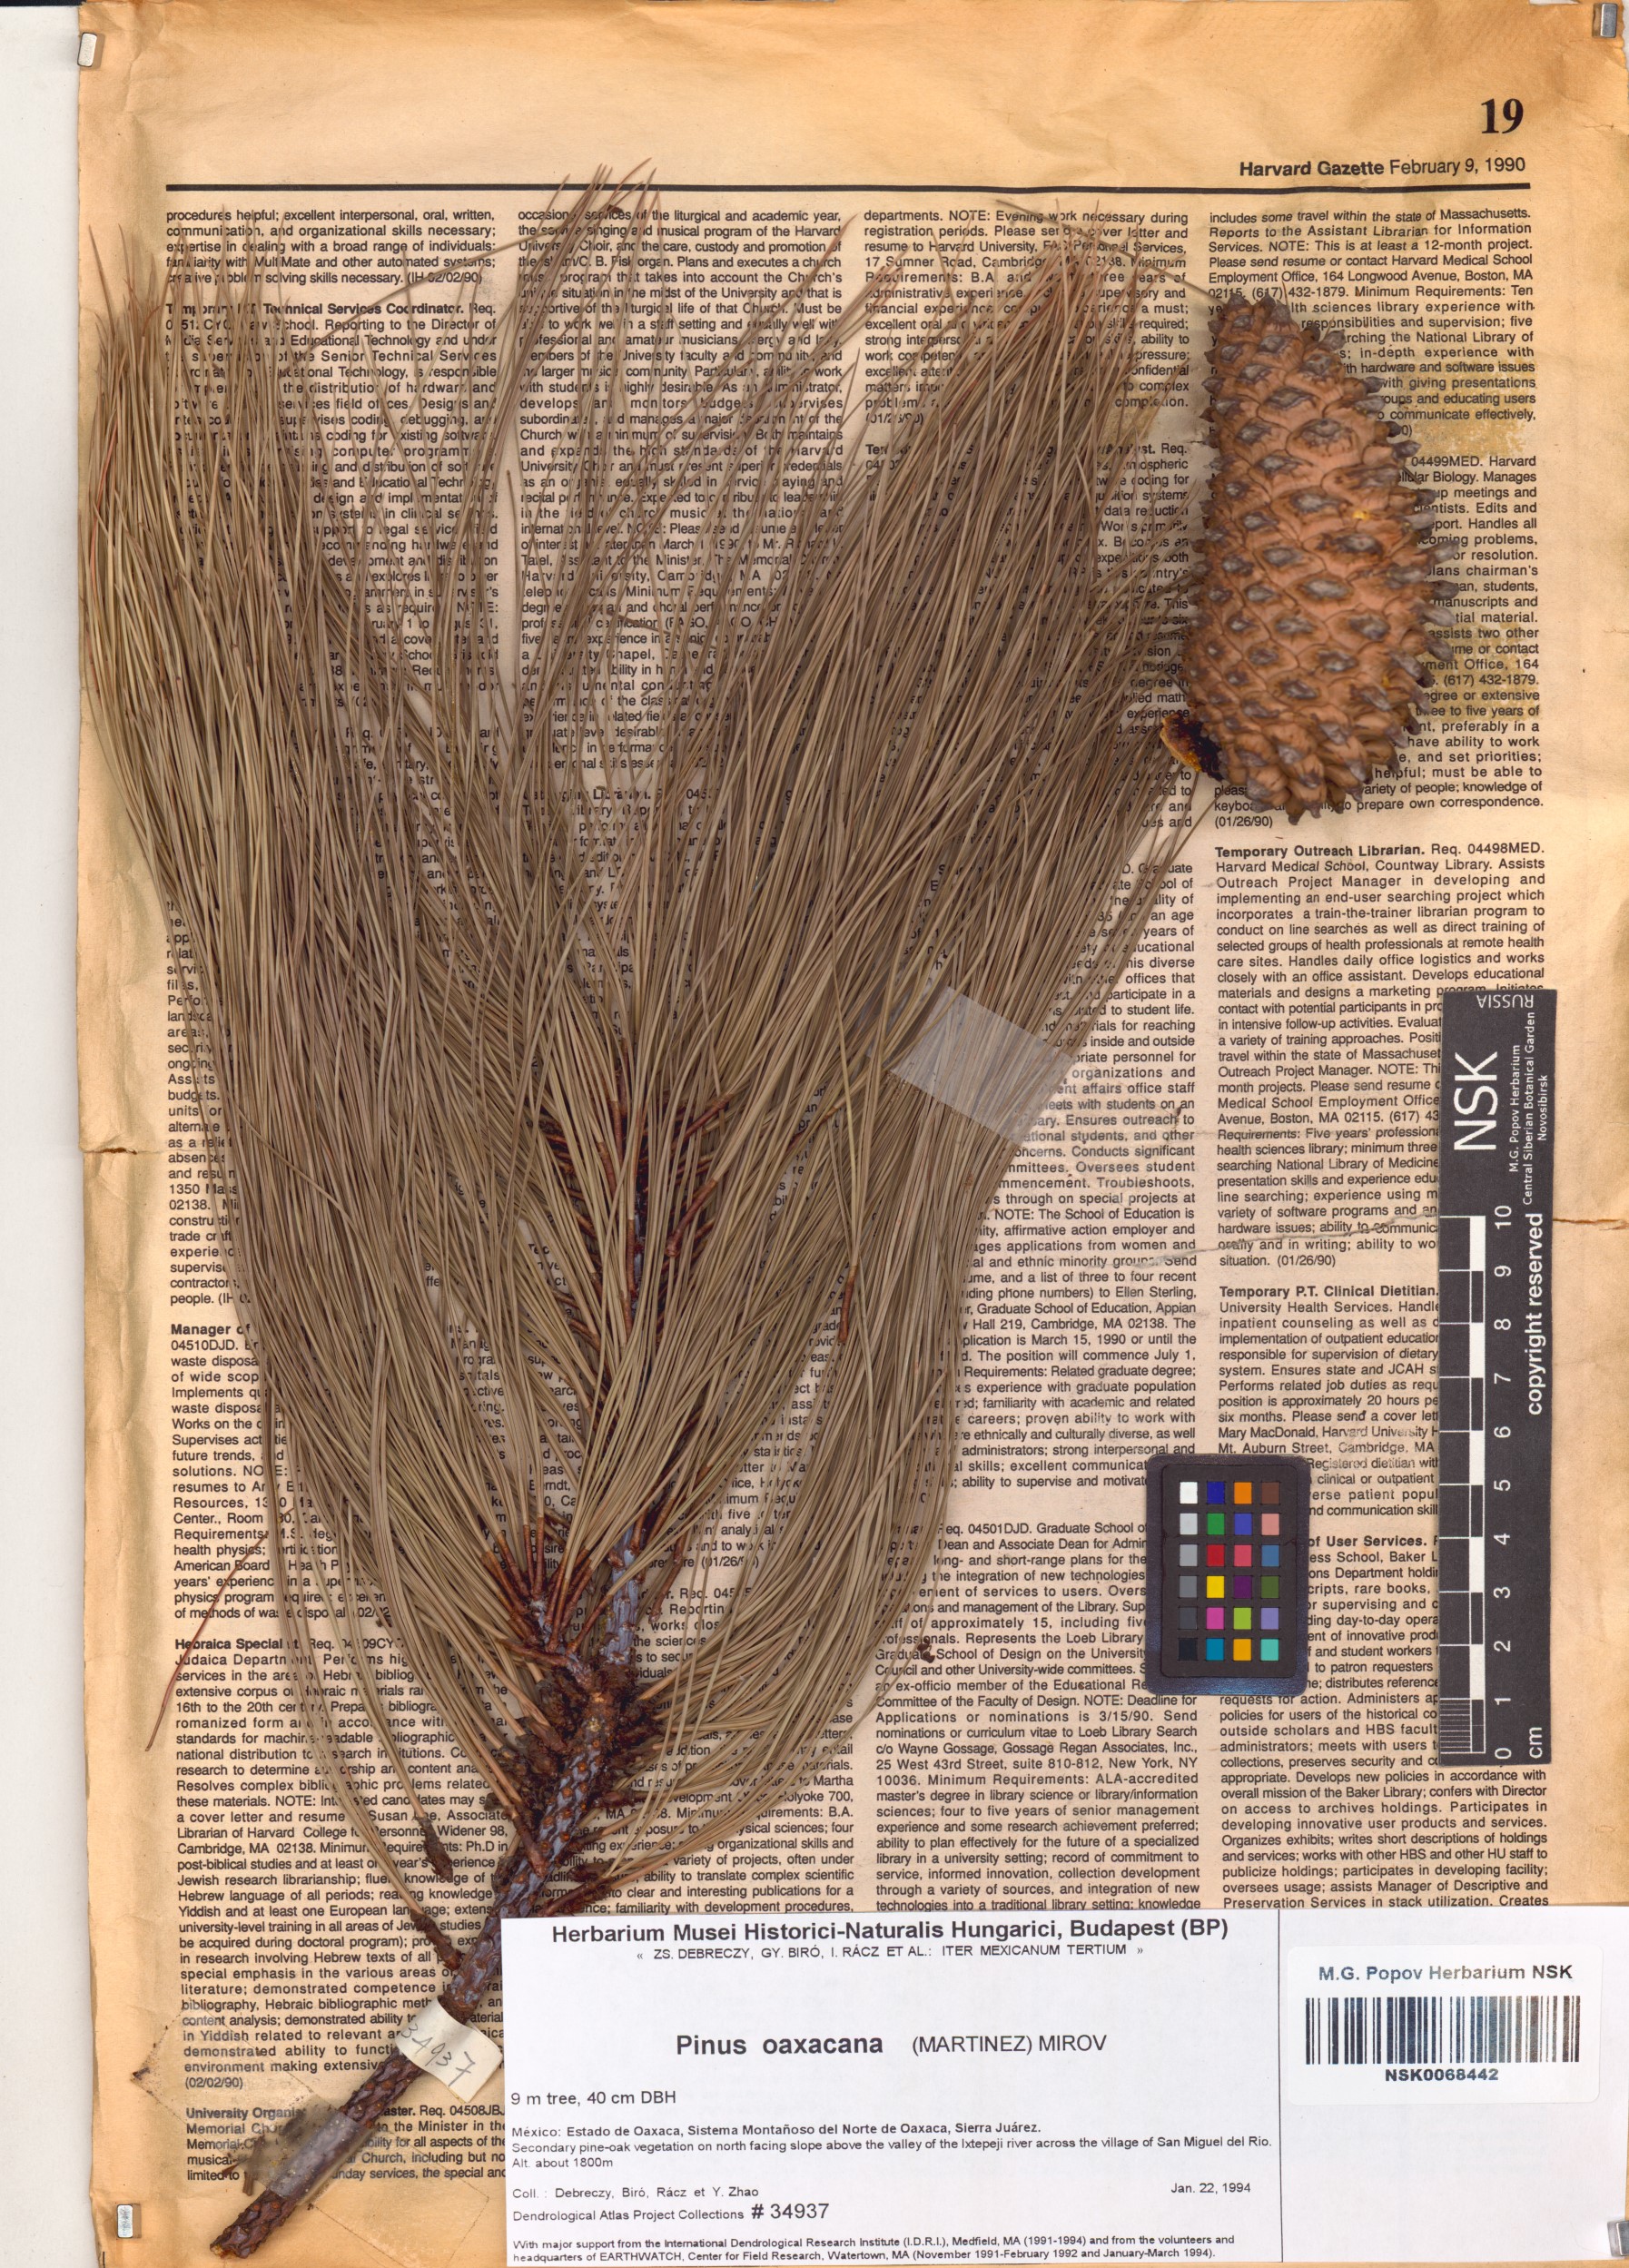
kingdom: Plantae
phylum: Tracheophyta
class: Pinopsida
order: Pinales
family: Pinaceae
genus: Pinus
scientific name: Pinus pseudostrobus
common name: False weymouth pine
